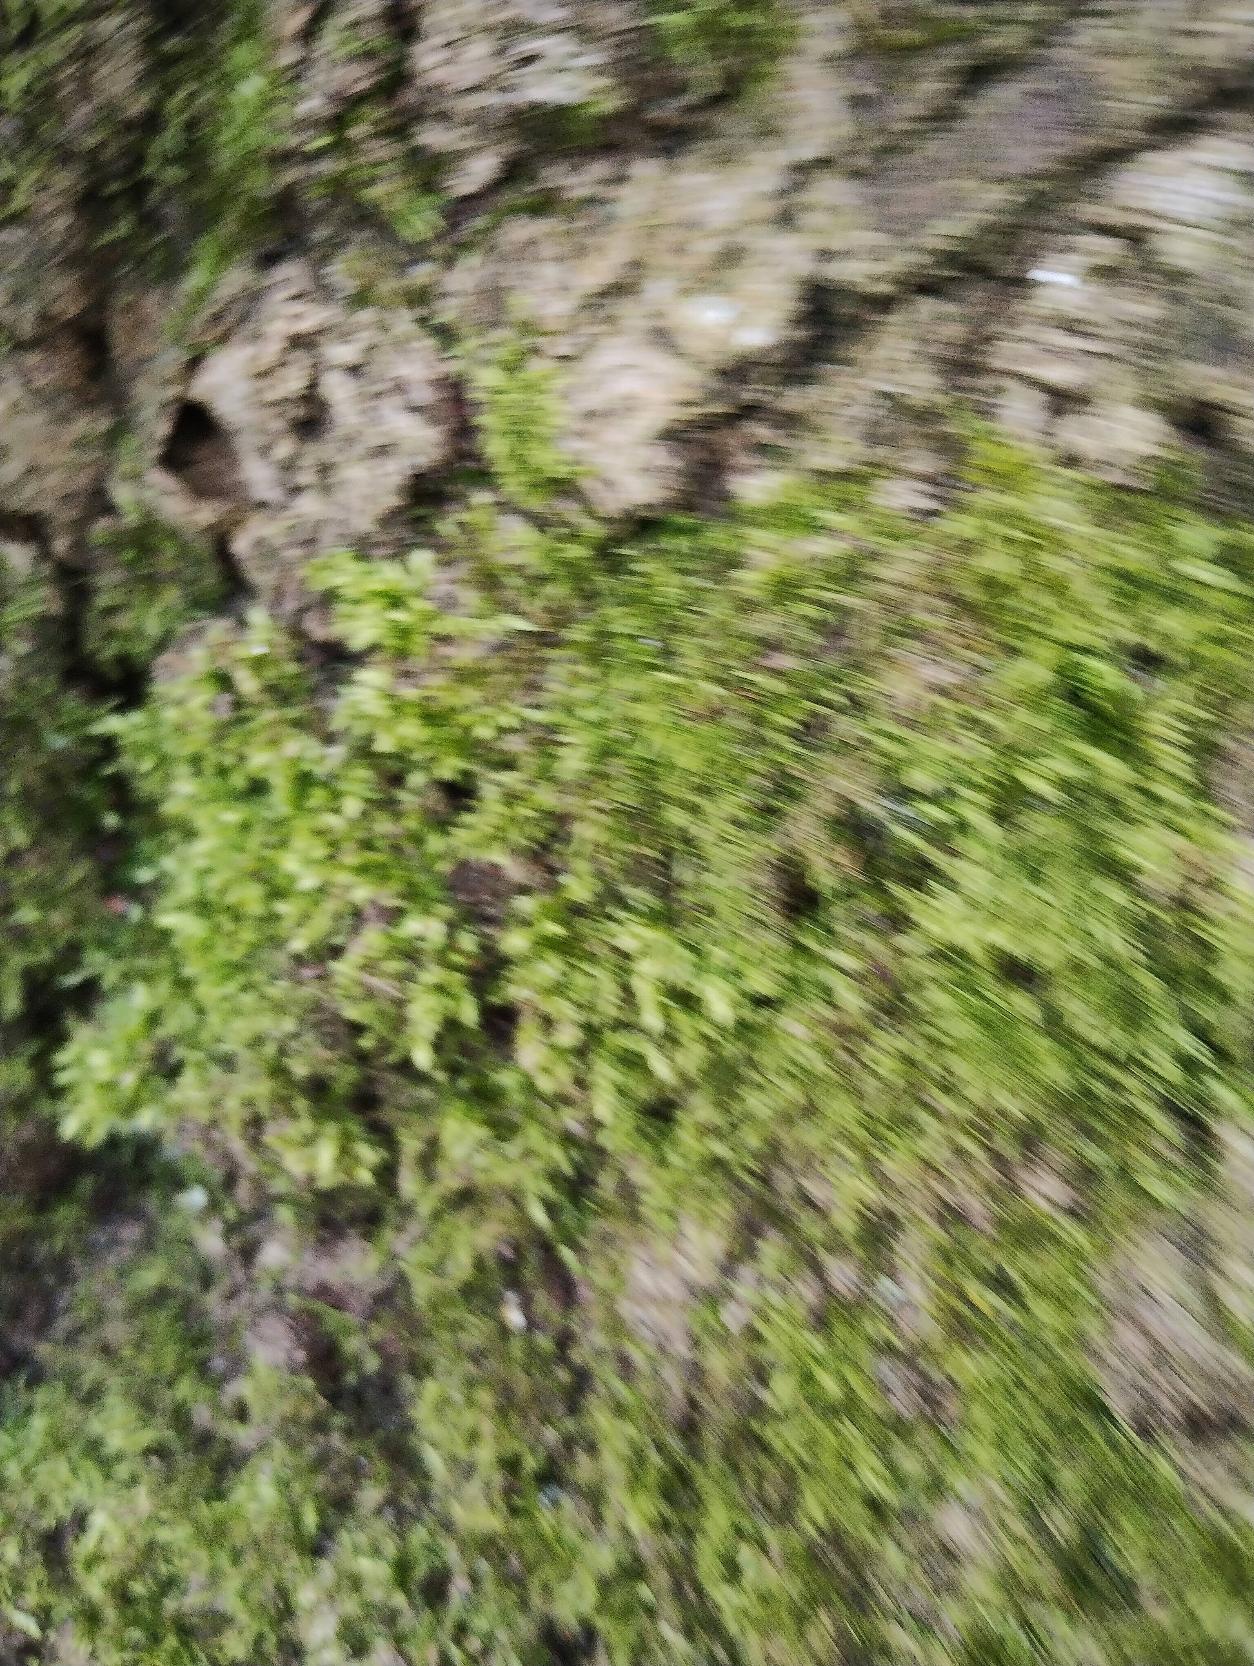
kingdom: Plantae
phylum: Bryophyta
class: Bryopsida
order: Hypnales
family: Brachytheciaceae
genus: Kindbergia
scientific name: Kindbergia praelonga
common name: Forskelligbladet vortetand
